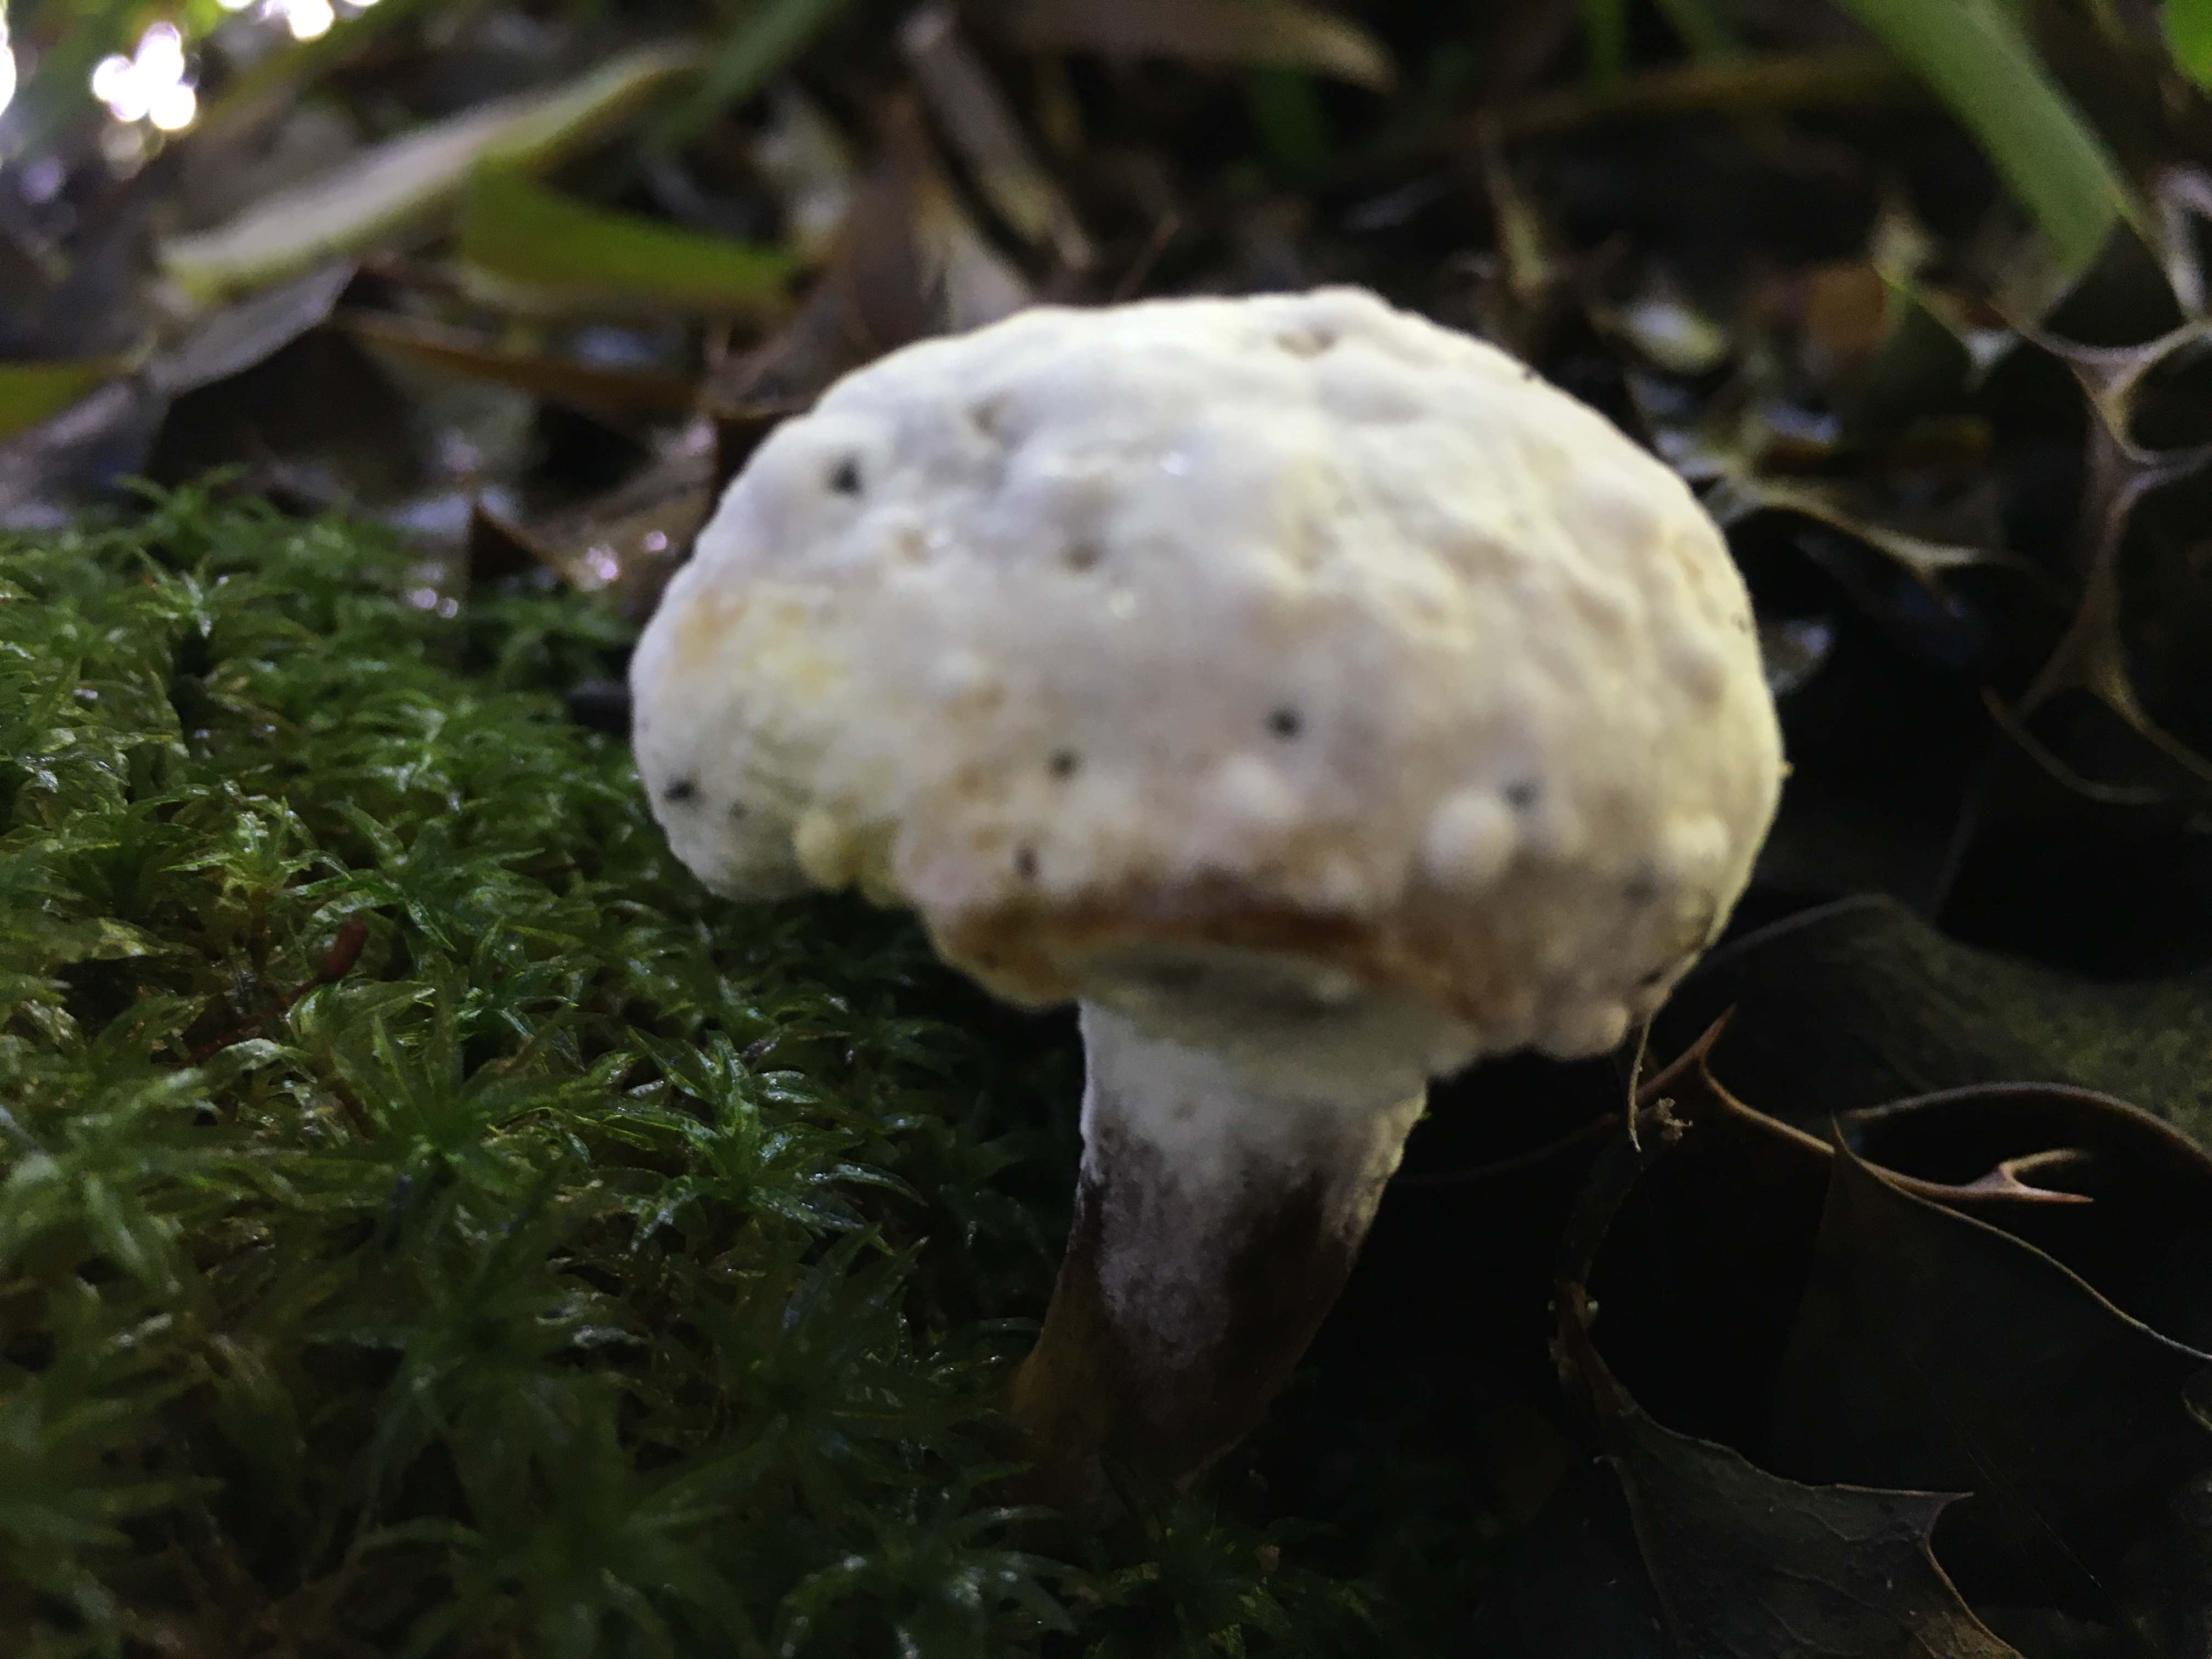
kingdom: Fungi
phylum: Ascomycota
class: Sordariomycetes
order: Hypocreales
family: Hypocreaceae
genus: Hypomyces
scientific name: Hypomyces
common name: snylteskorpe
